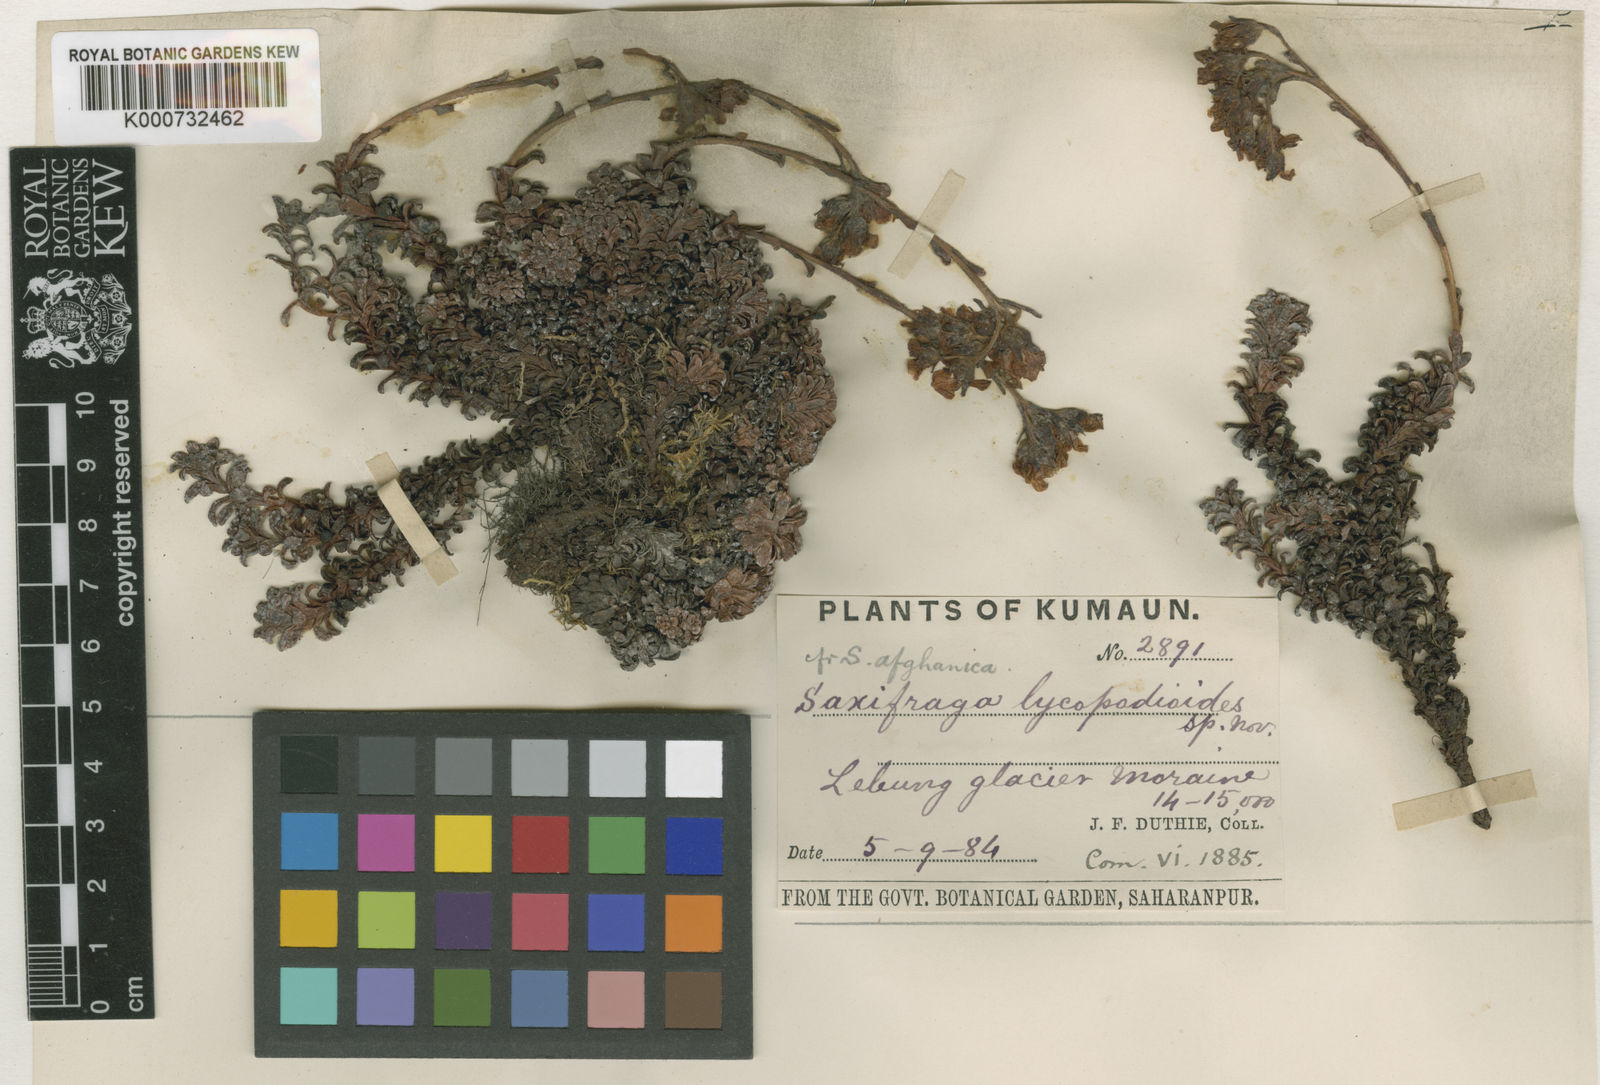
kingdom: Plantae
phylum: Tracheophyta
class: Magnoliopsida
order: Saxifragales
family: Saxifragaceae
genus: Saxifraga
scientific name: Saxifraga stolitzkae
